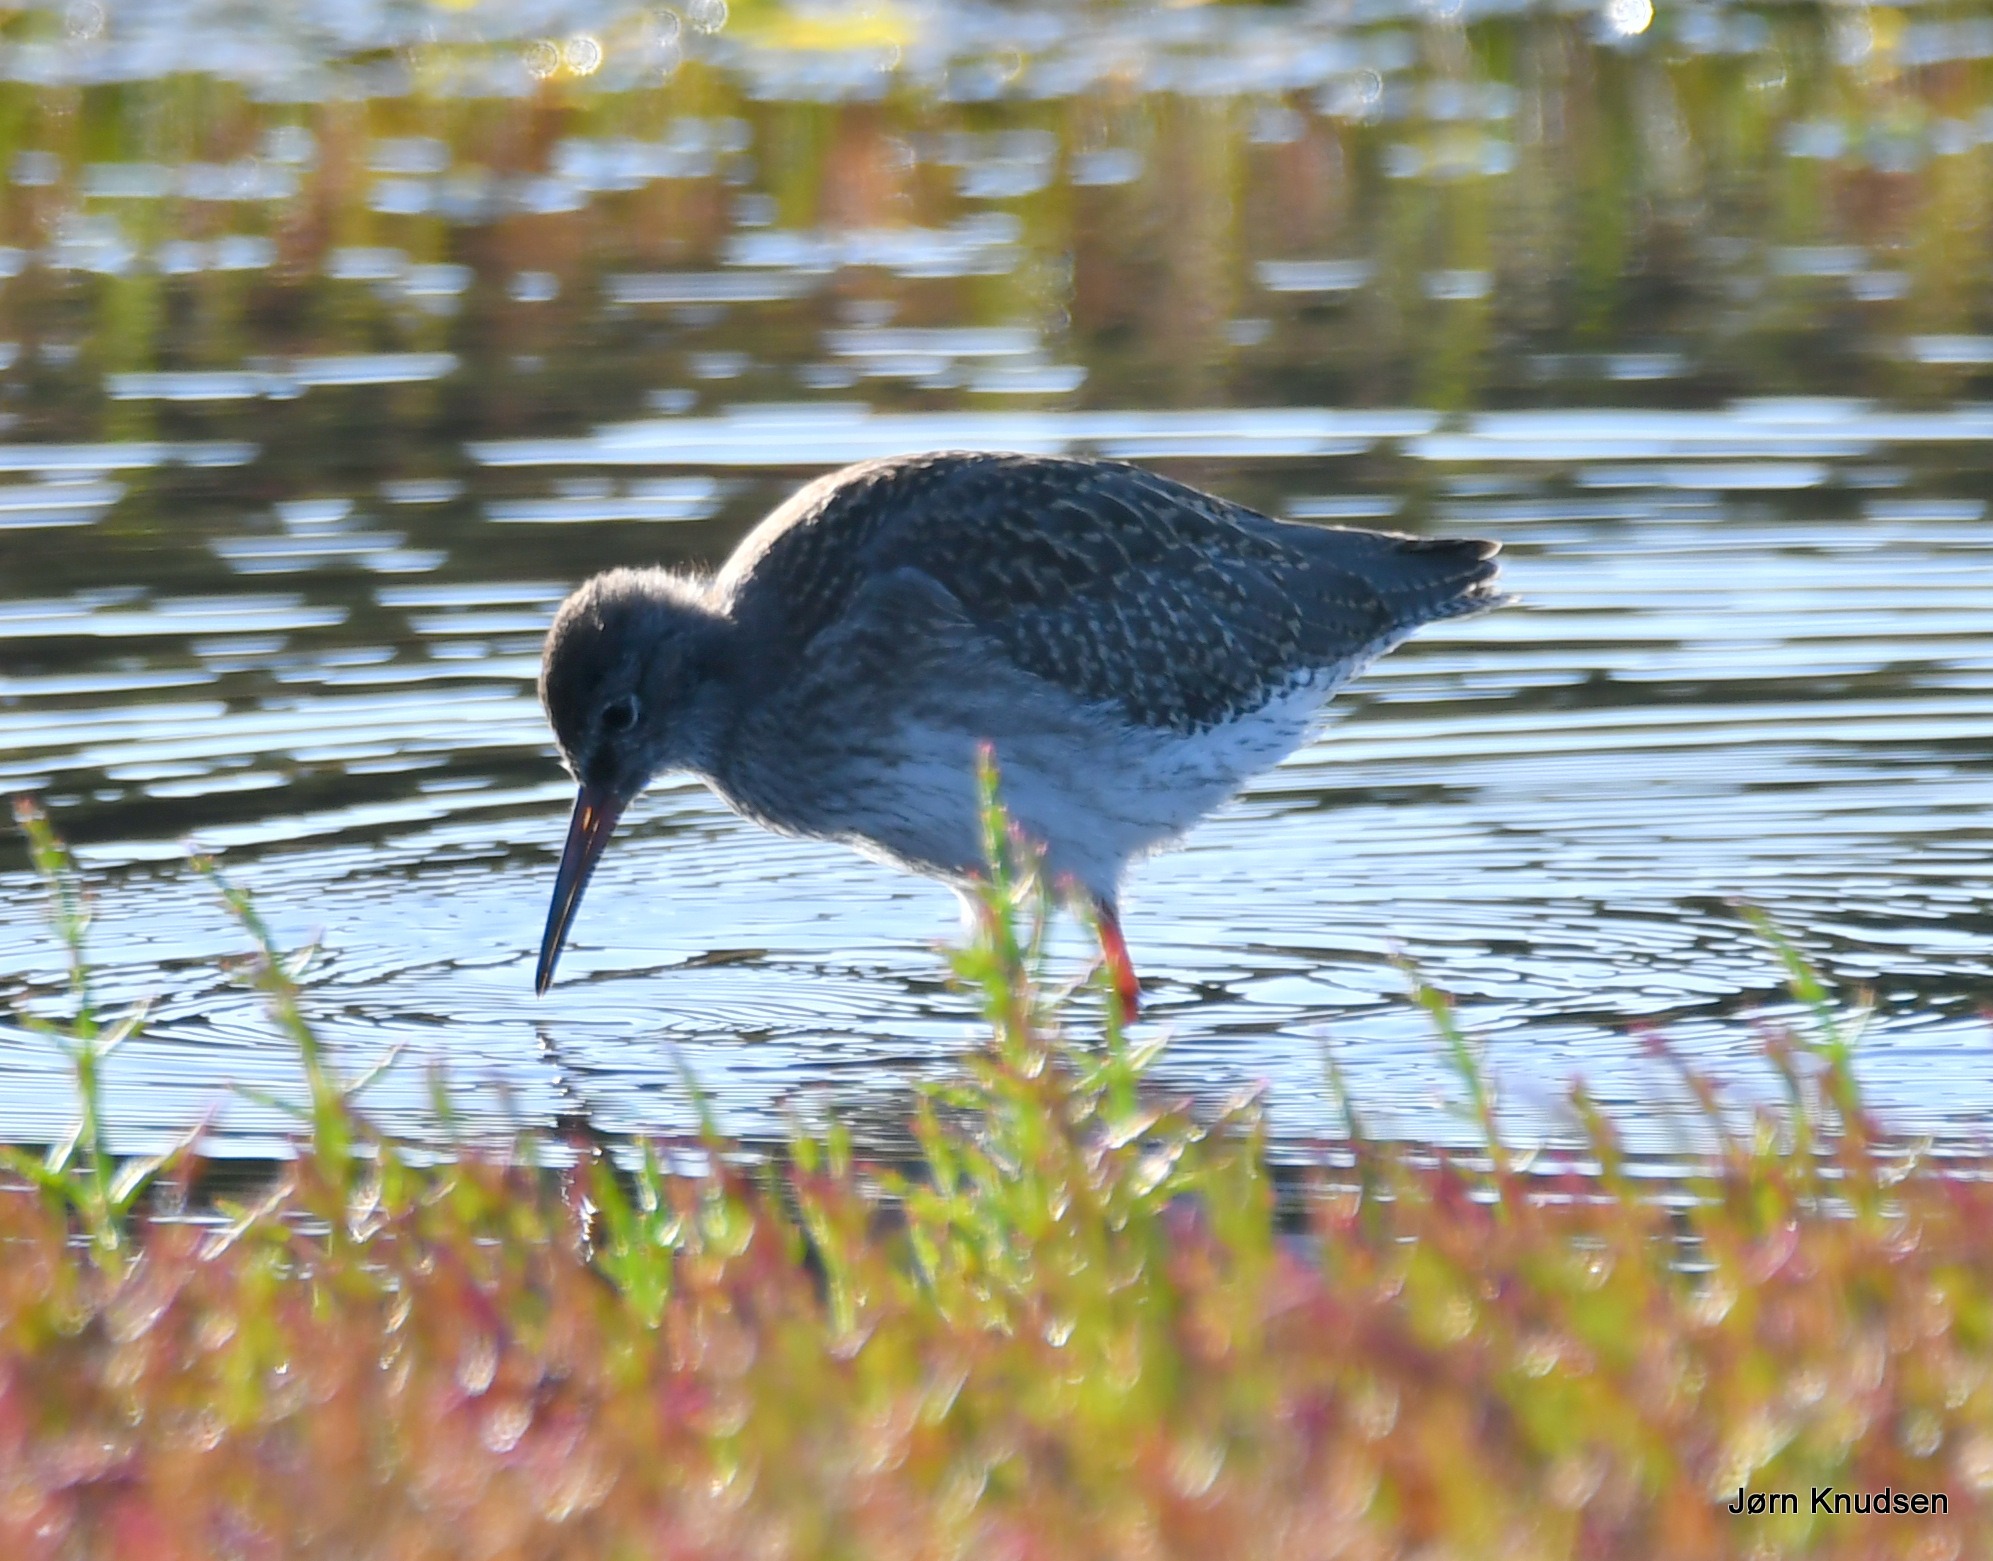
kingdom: Animalia
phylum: Chordata
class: Aves
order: Charadriiformes
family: Scolopacidae
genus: Tringa
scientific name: Tringa totanus
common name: Rødben
